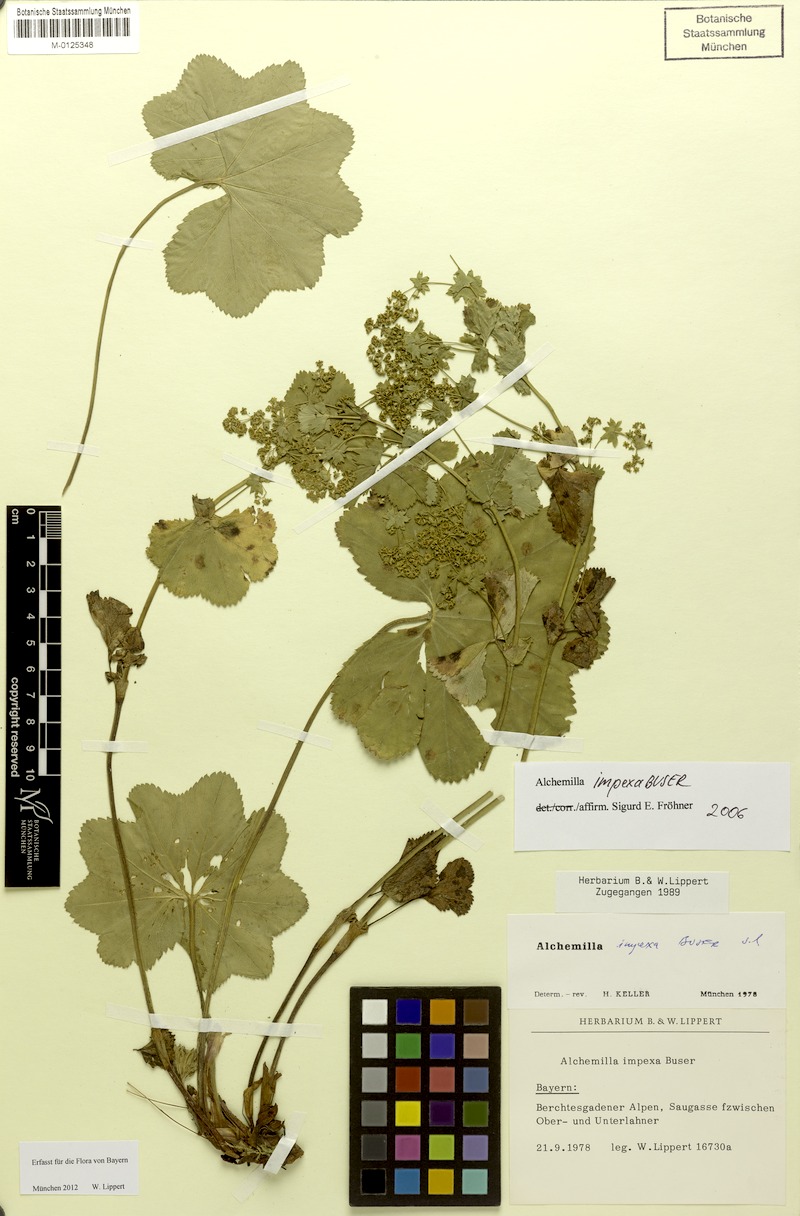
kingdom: Plantae
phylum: Tracheophyta
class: Magnoliopsida
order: Rosales
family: Rosaceae
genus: Alchemilla
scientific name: Alchemilla impexa
